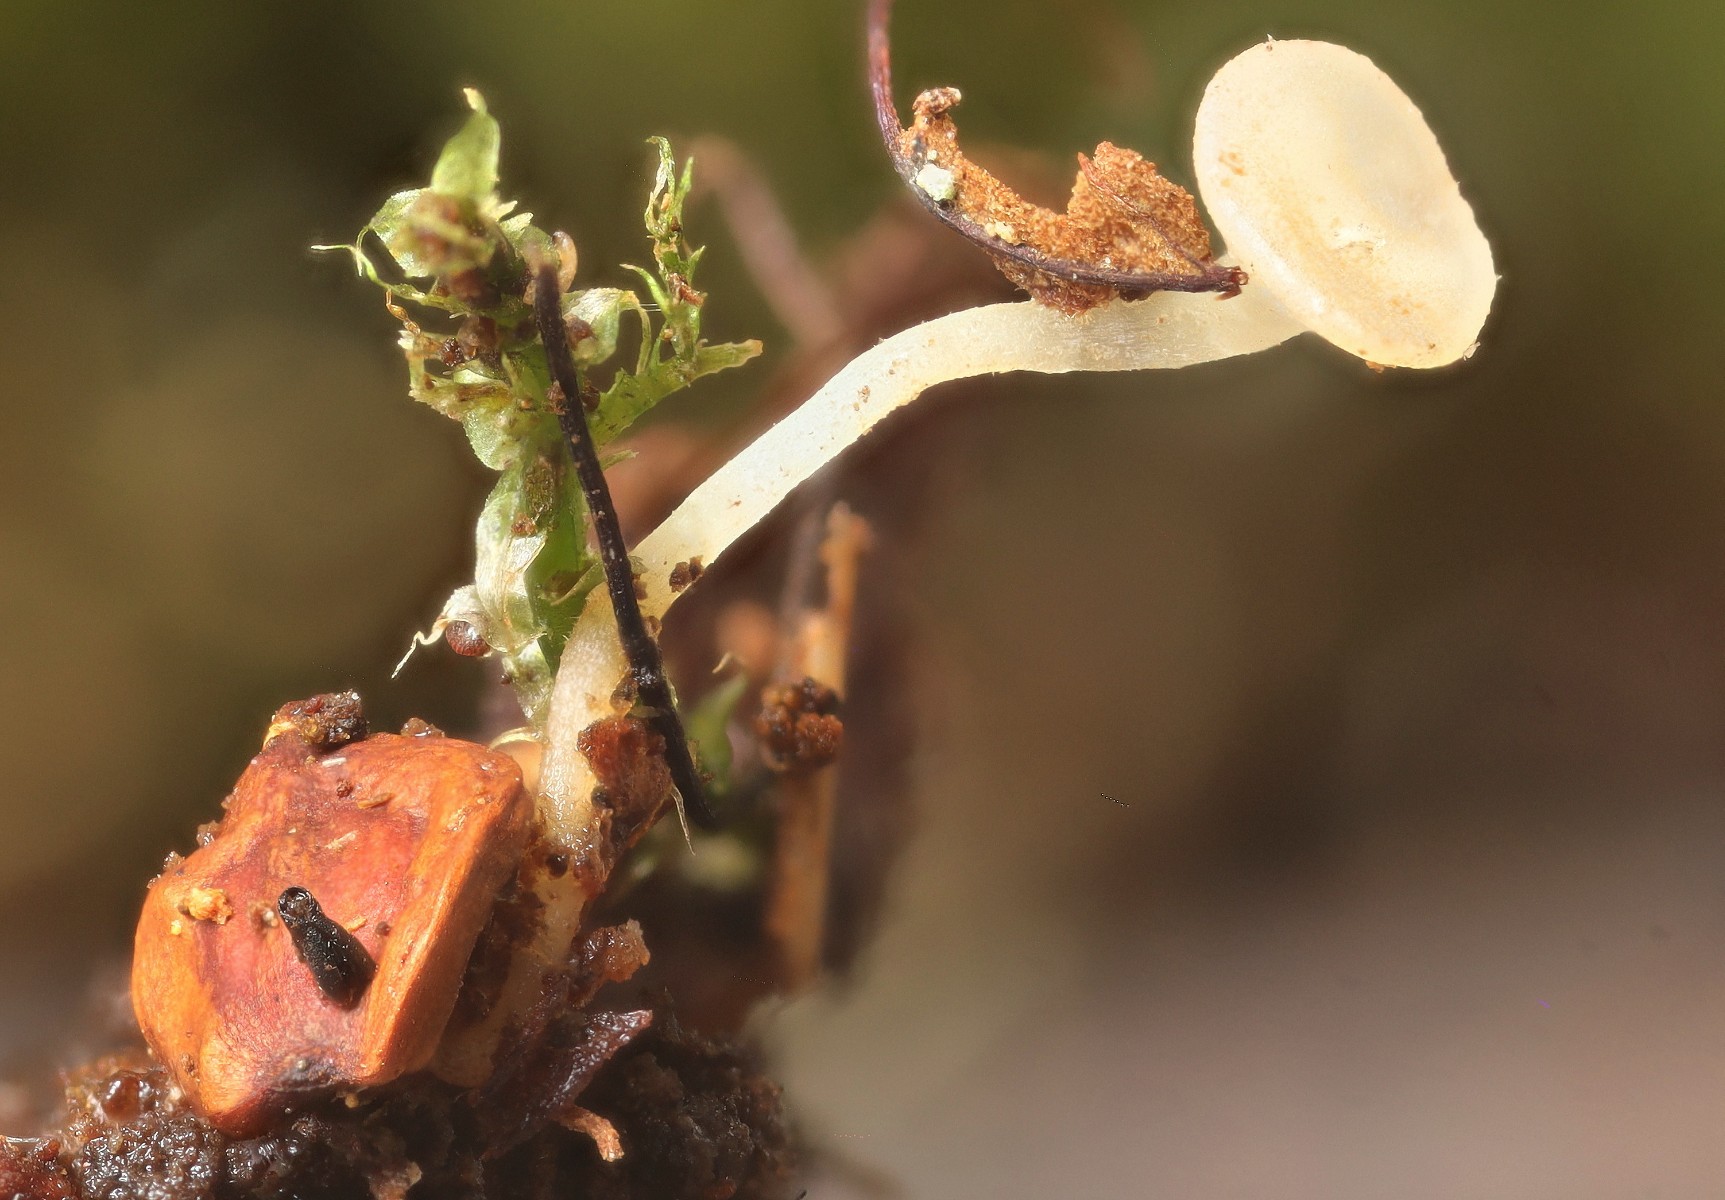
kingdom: Fungi
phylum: Ascomycota
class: Leotiomycetes
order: Helotiales
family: Helotiaceae
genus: Hymenoscyphus
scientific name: Hymenoscyphus seminis-alni
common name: ellefrø-stilkskive
